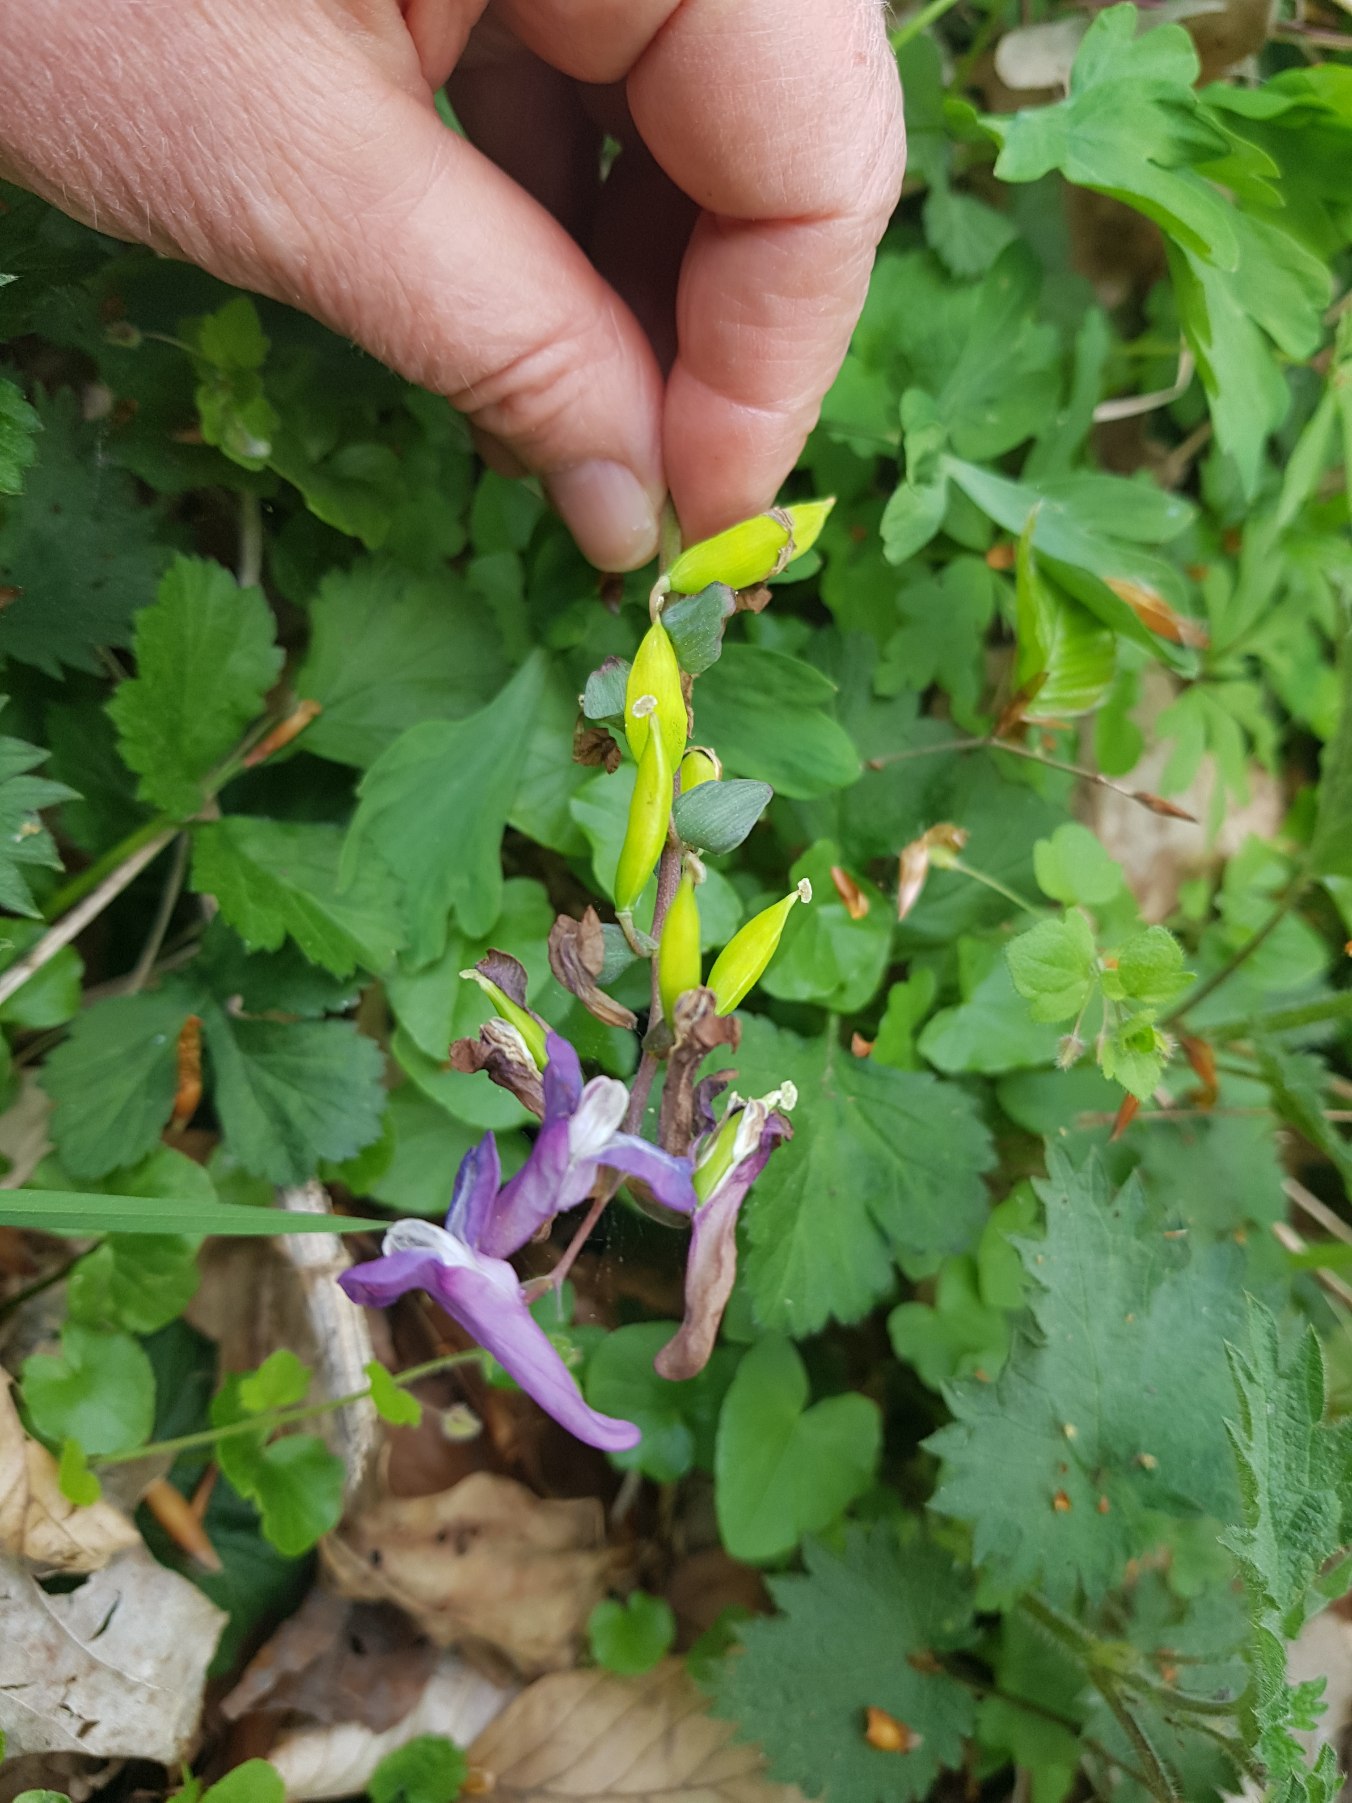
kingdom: Plantae
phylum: Tracheophyta
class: Magnoliopsida
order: Ranunculales
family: Papaveraceae
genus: Corydalis
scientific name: Corydalis cava
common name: Hulrodet lærkespore
